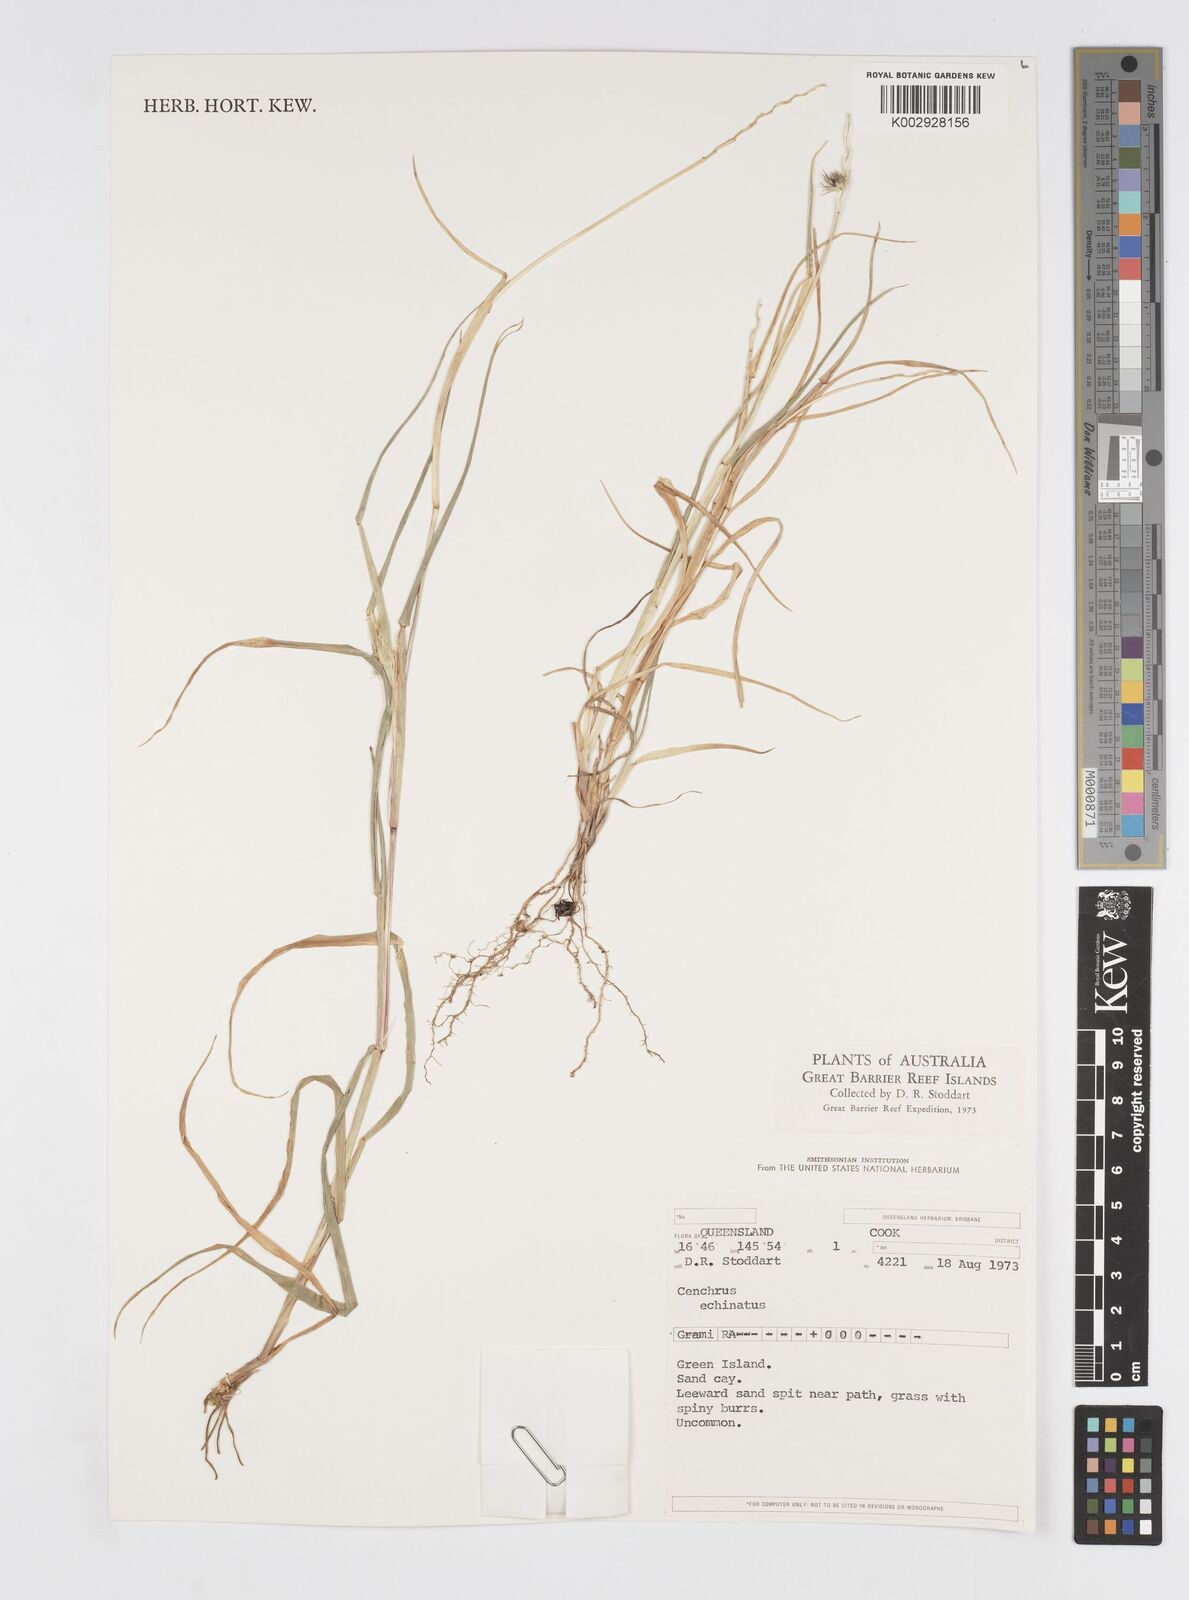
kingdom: Plantae
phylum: Tracheophyta
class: Liliopsida
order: Poales
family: Poaceae
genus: Cenchrus
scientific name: Cenchrus echinatus
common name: Southern sandbur
